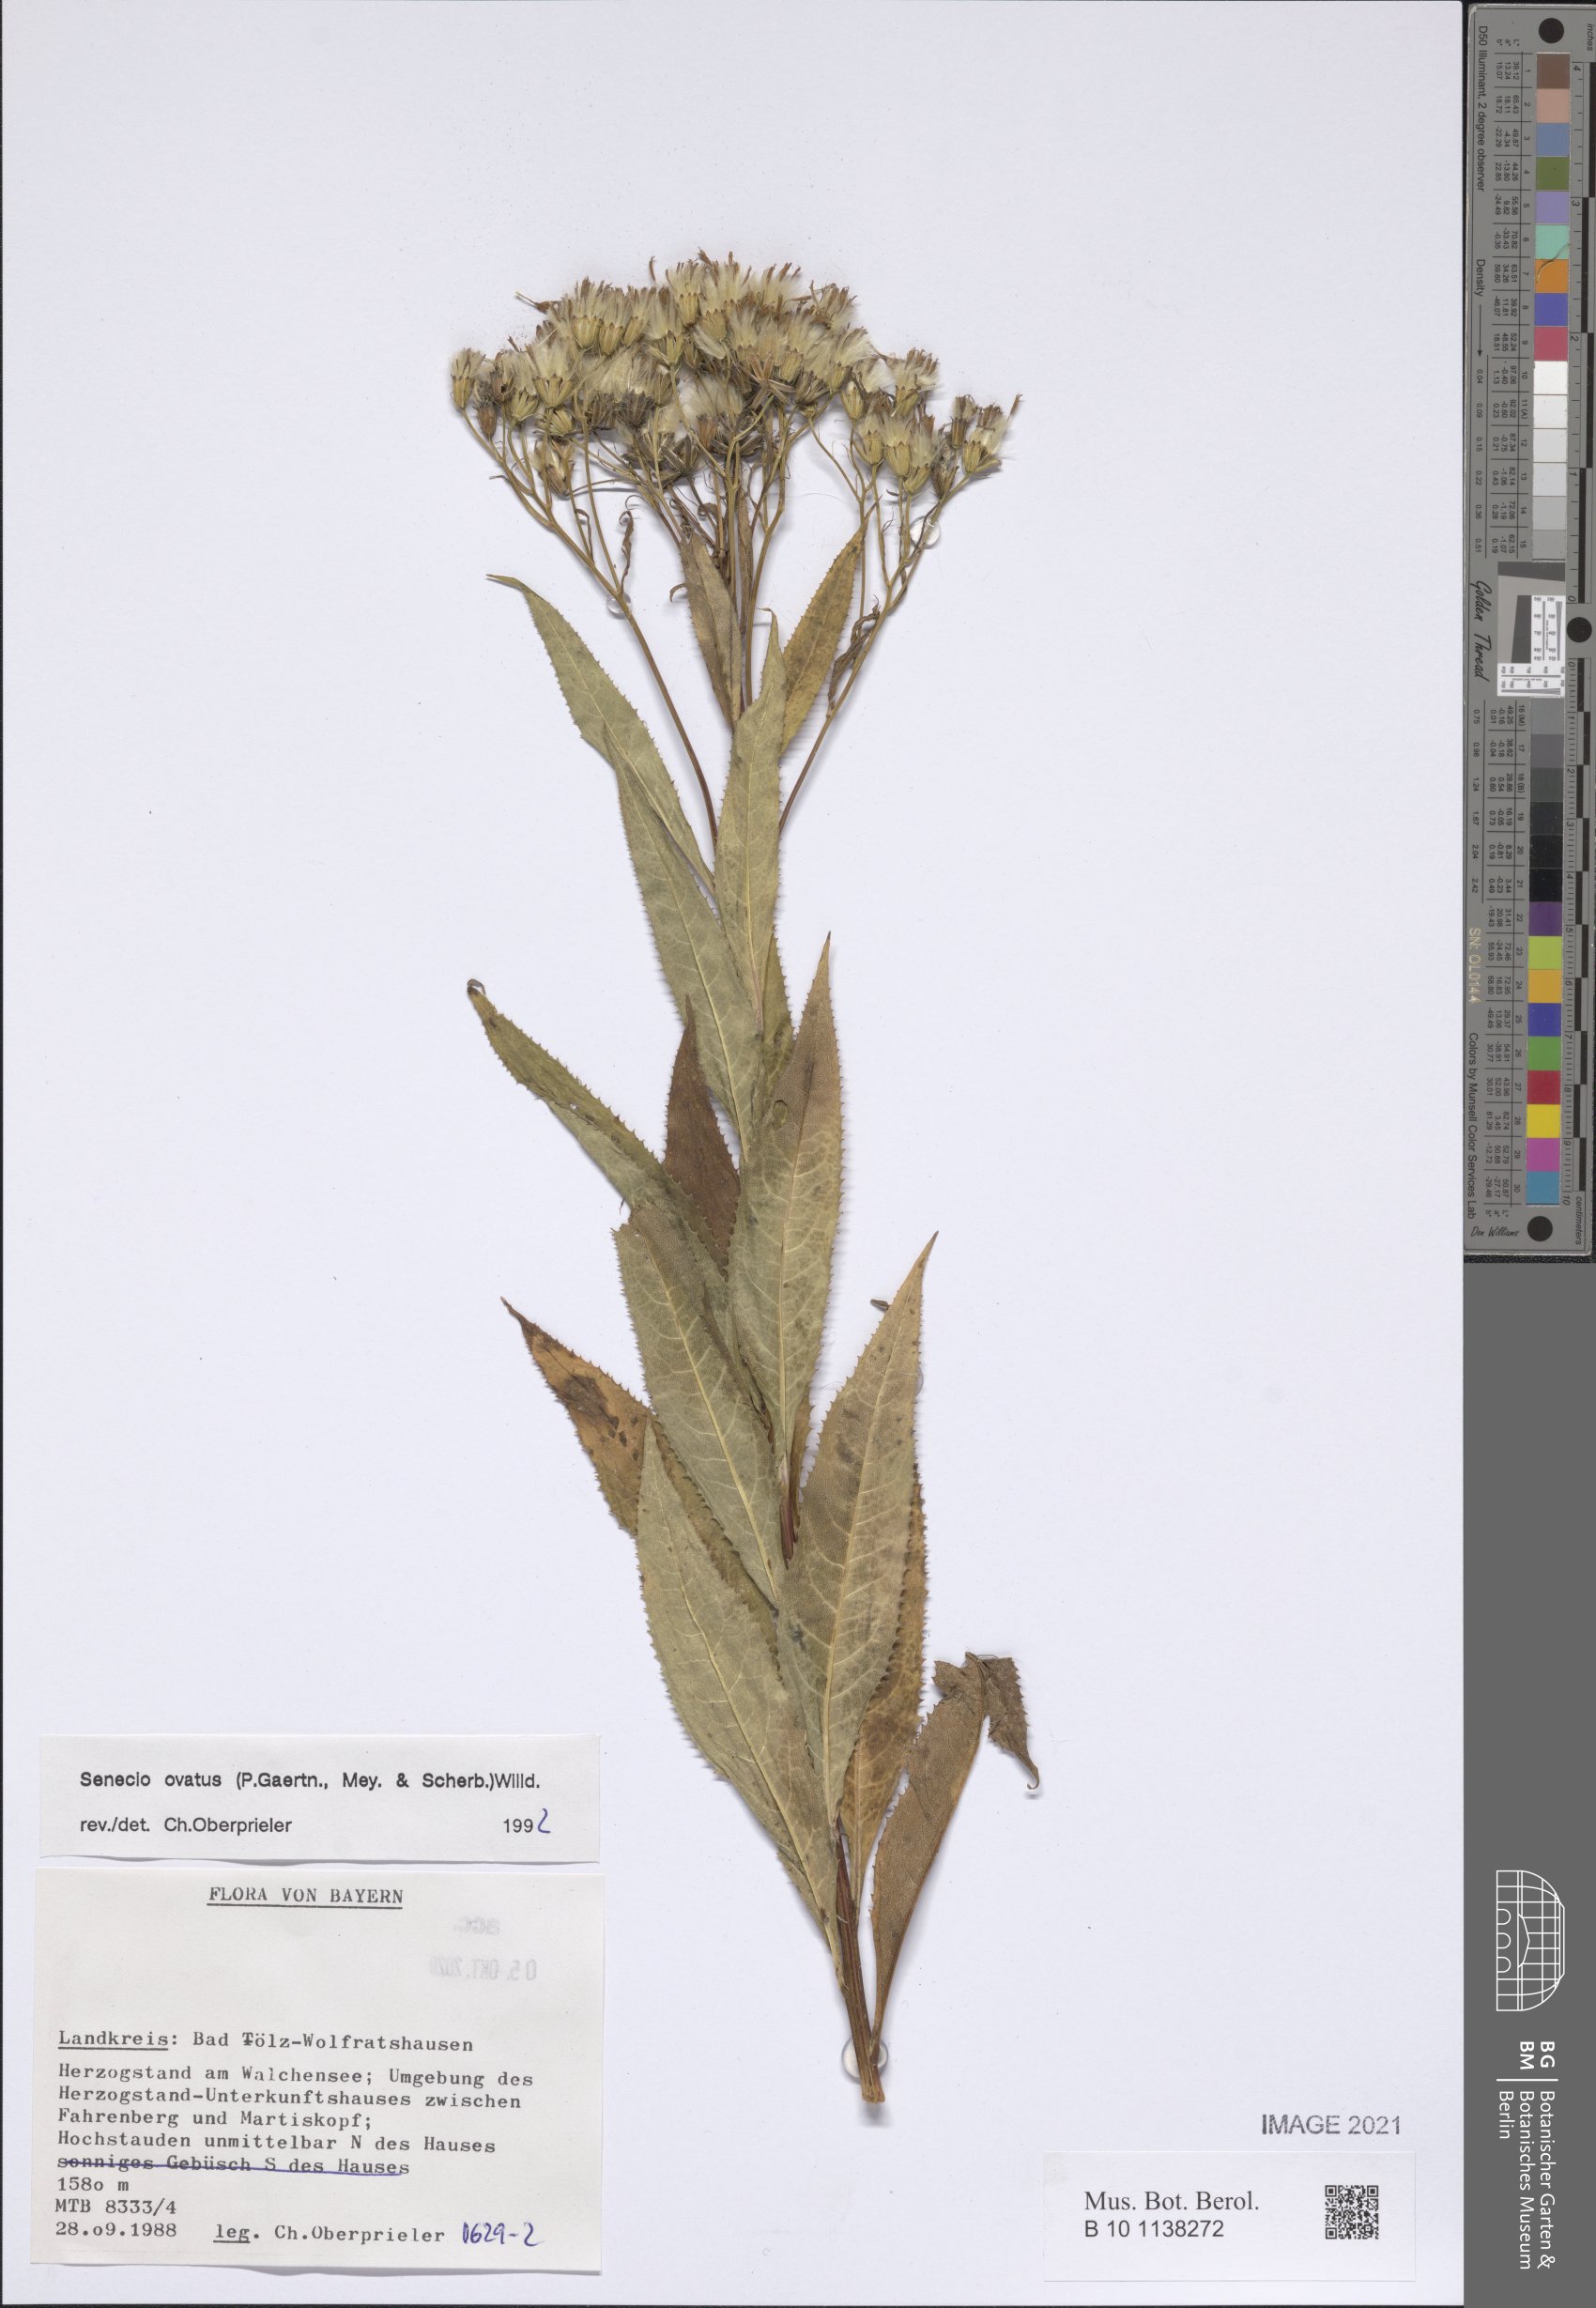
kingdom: Plantae
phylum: Tracheophyta
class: Magnoliopsida
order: Asterales
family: Asteraceae
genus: Senecio
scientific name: Senecio ovatus
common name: Wood ragwort
